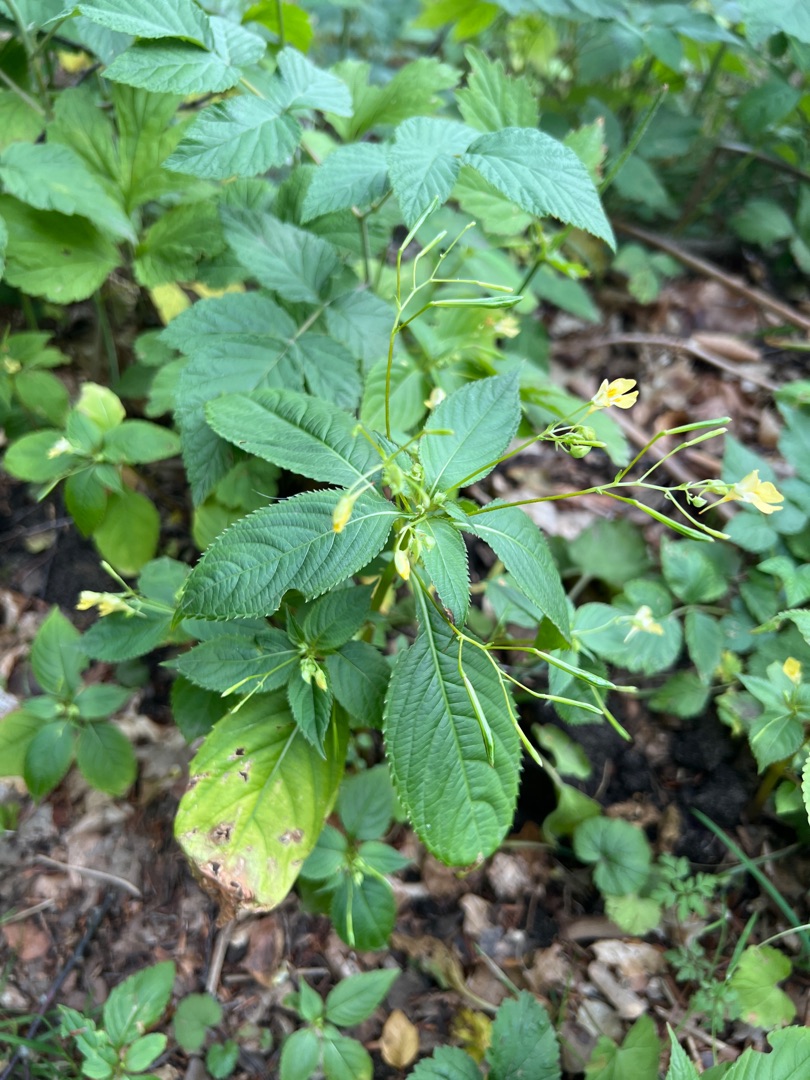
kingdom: Plantae
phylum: Tracheophyta
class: Magnoliopsida
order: Ericales
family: Balsaminaceae
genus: Impatiens
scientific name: Impatiens parviflora
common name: Småblomstret balsamin
